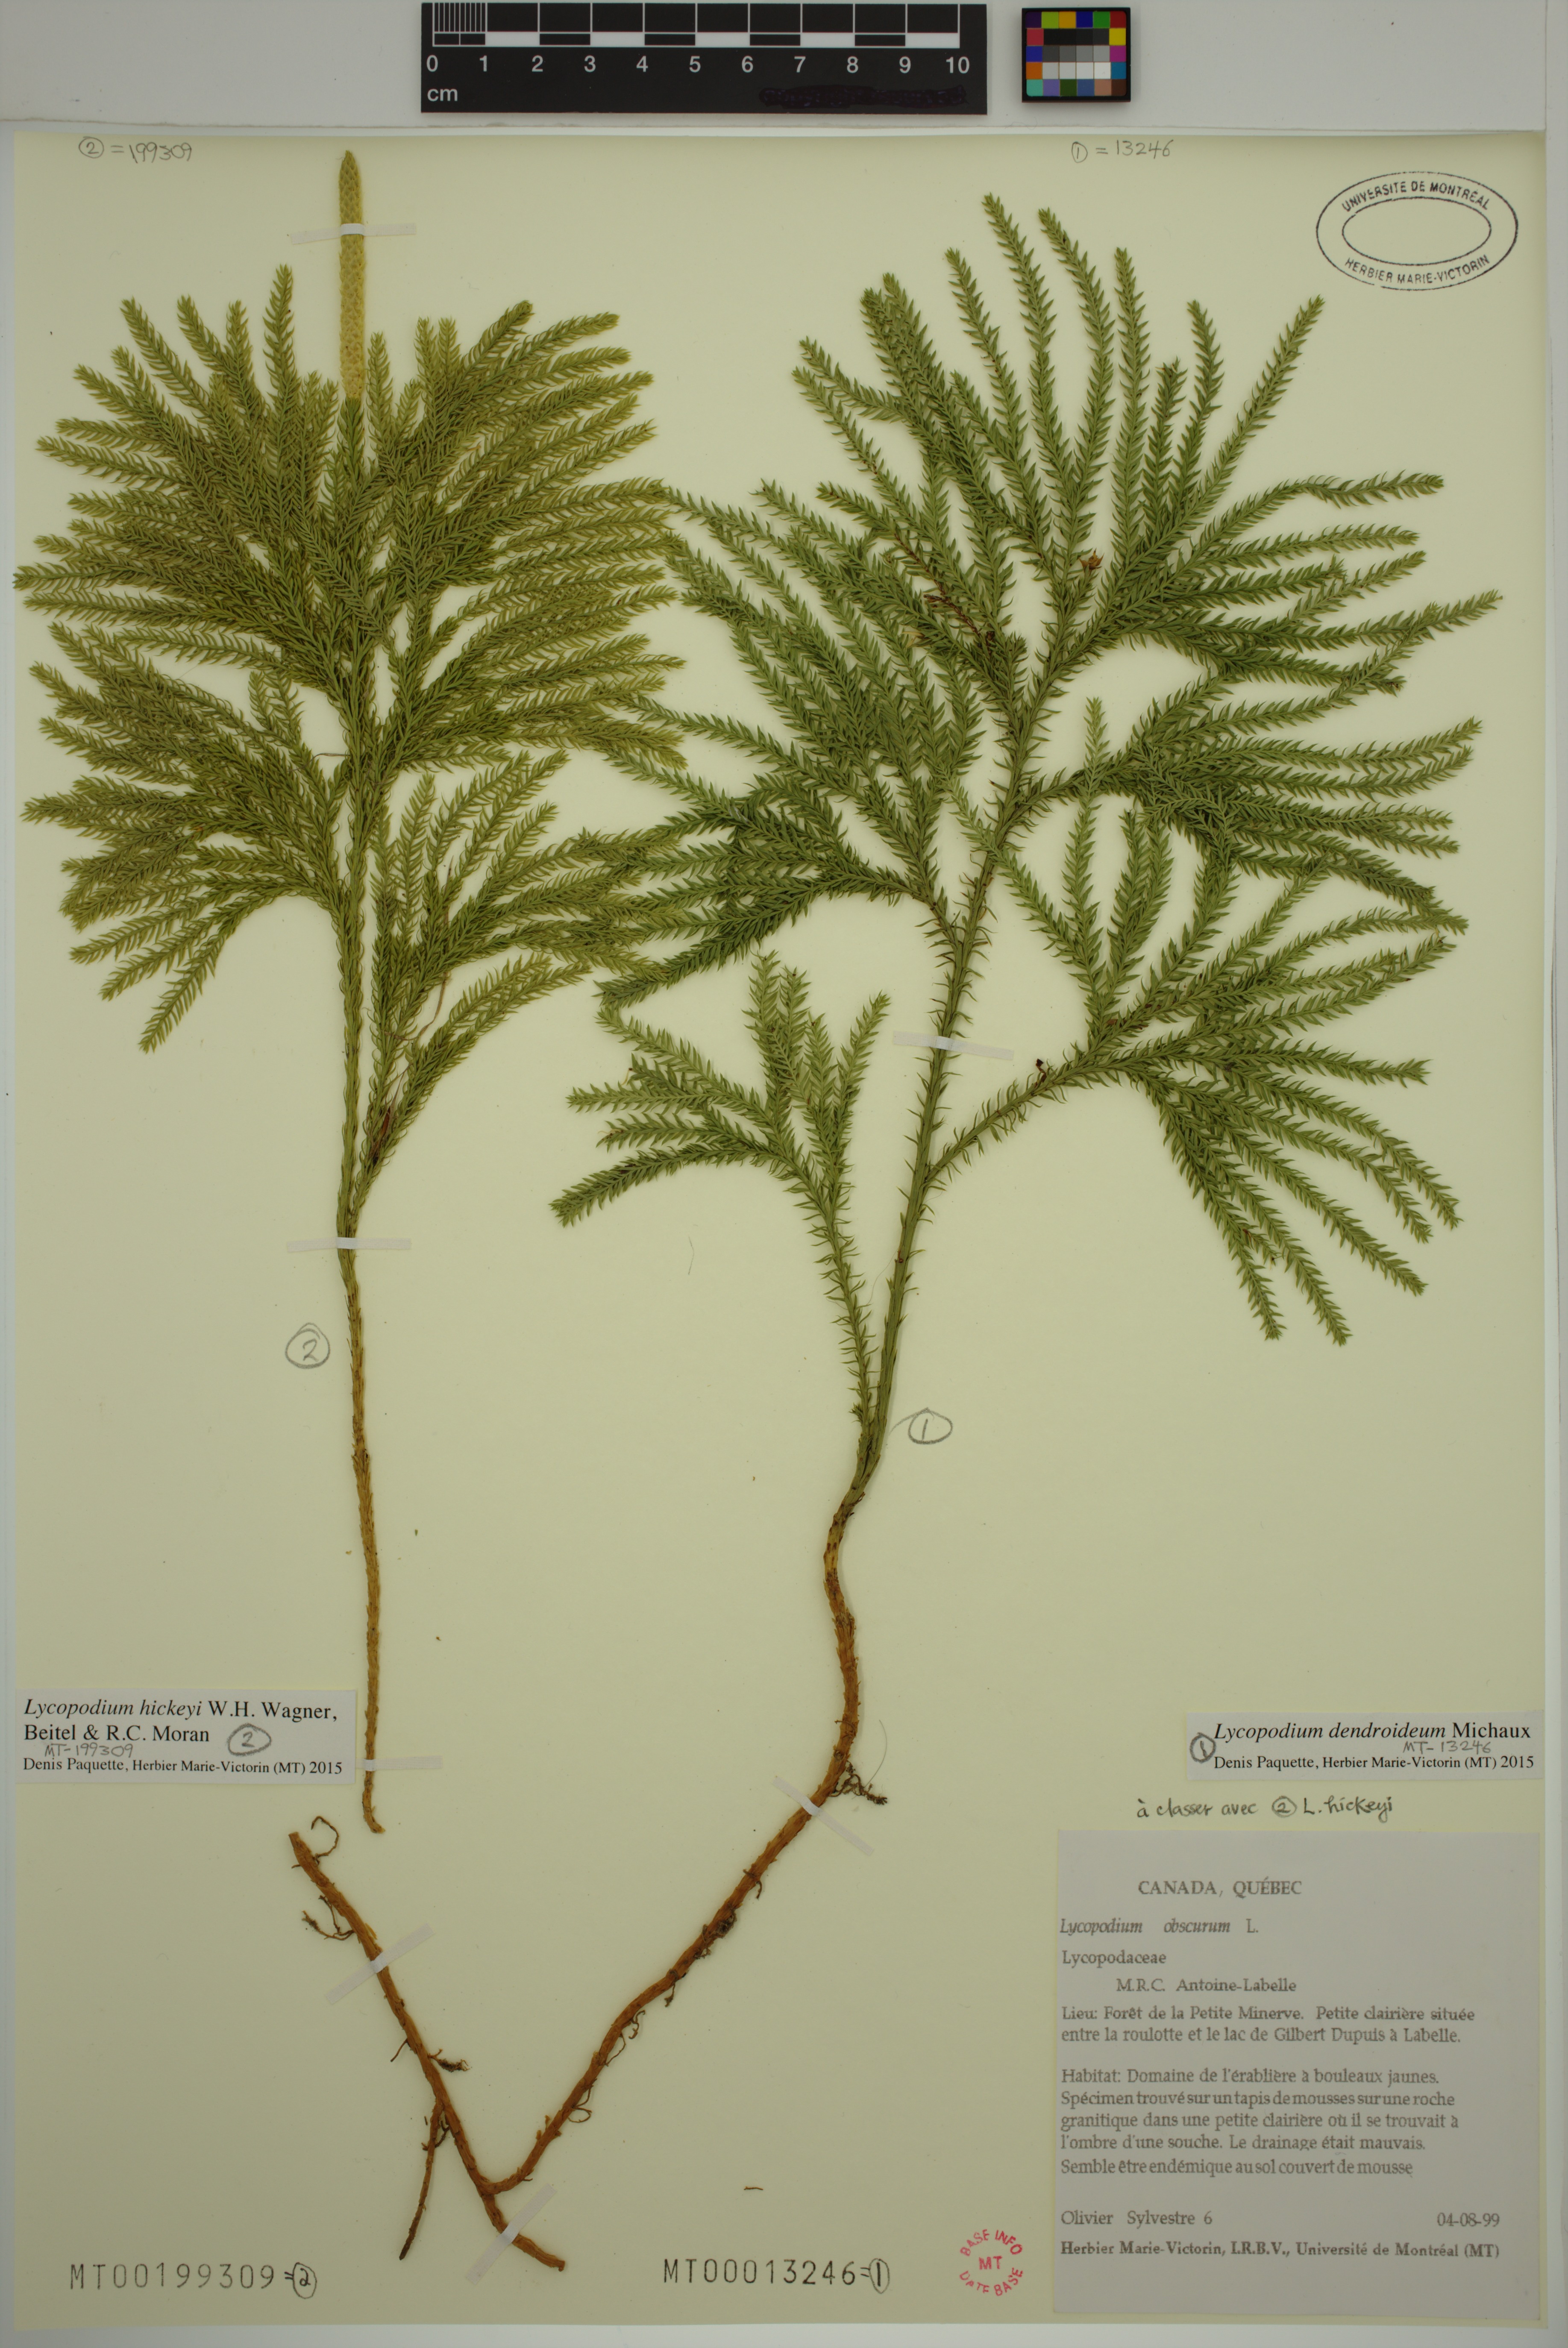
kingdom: Plantae
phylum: Tracheophyta
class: Lycopodiopsida
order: Lycopodiales
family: Lycopodiaceae
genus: Dendrolycopodium
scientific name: Dendrolycopodium hickeyi
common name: Hickey's clubmoss
